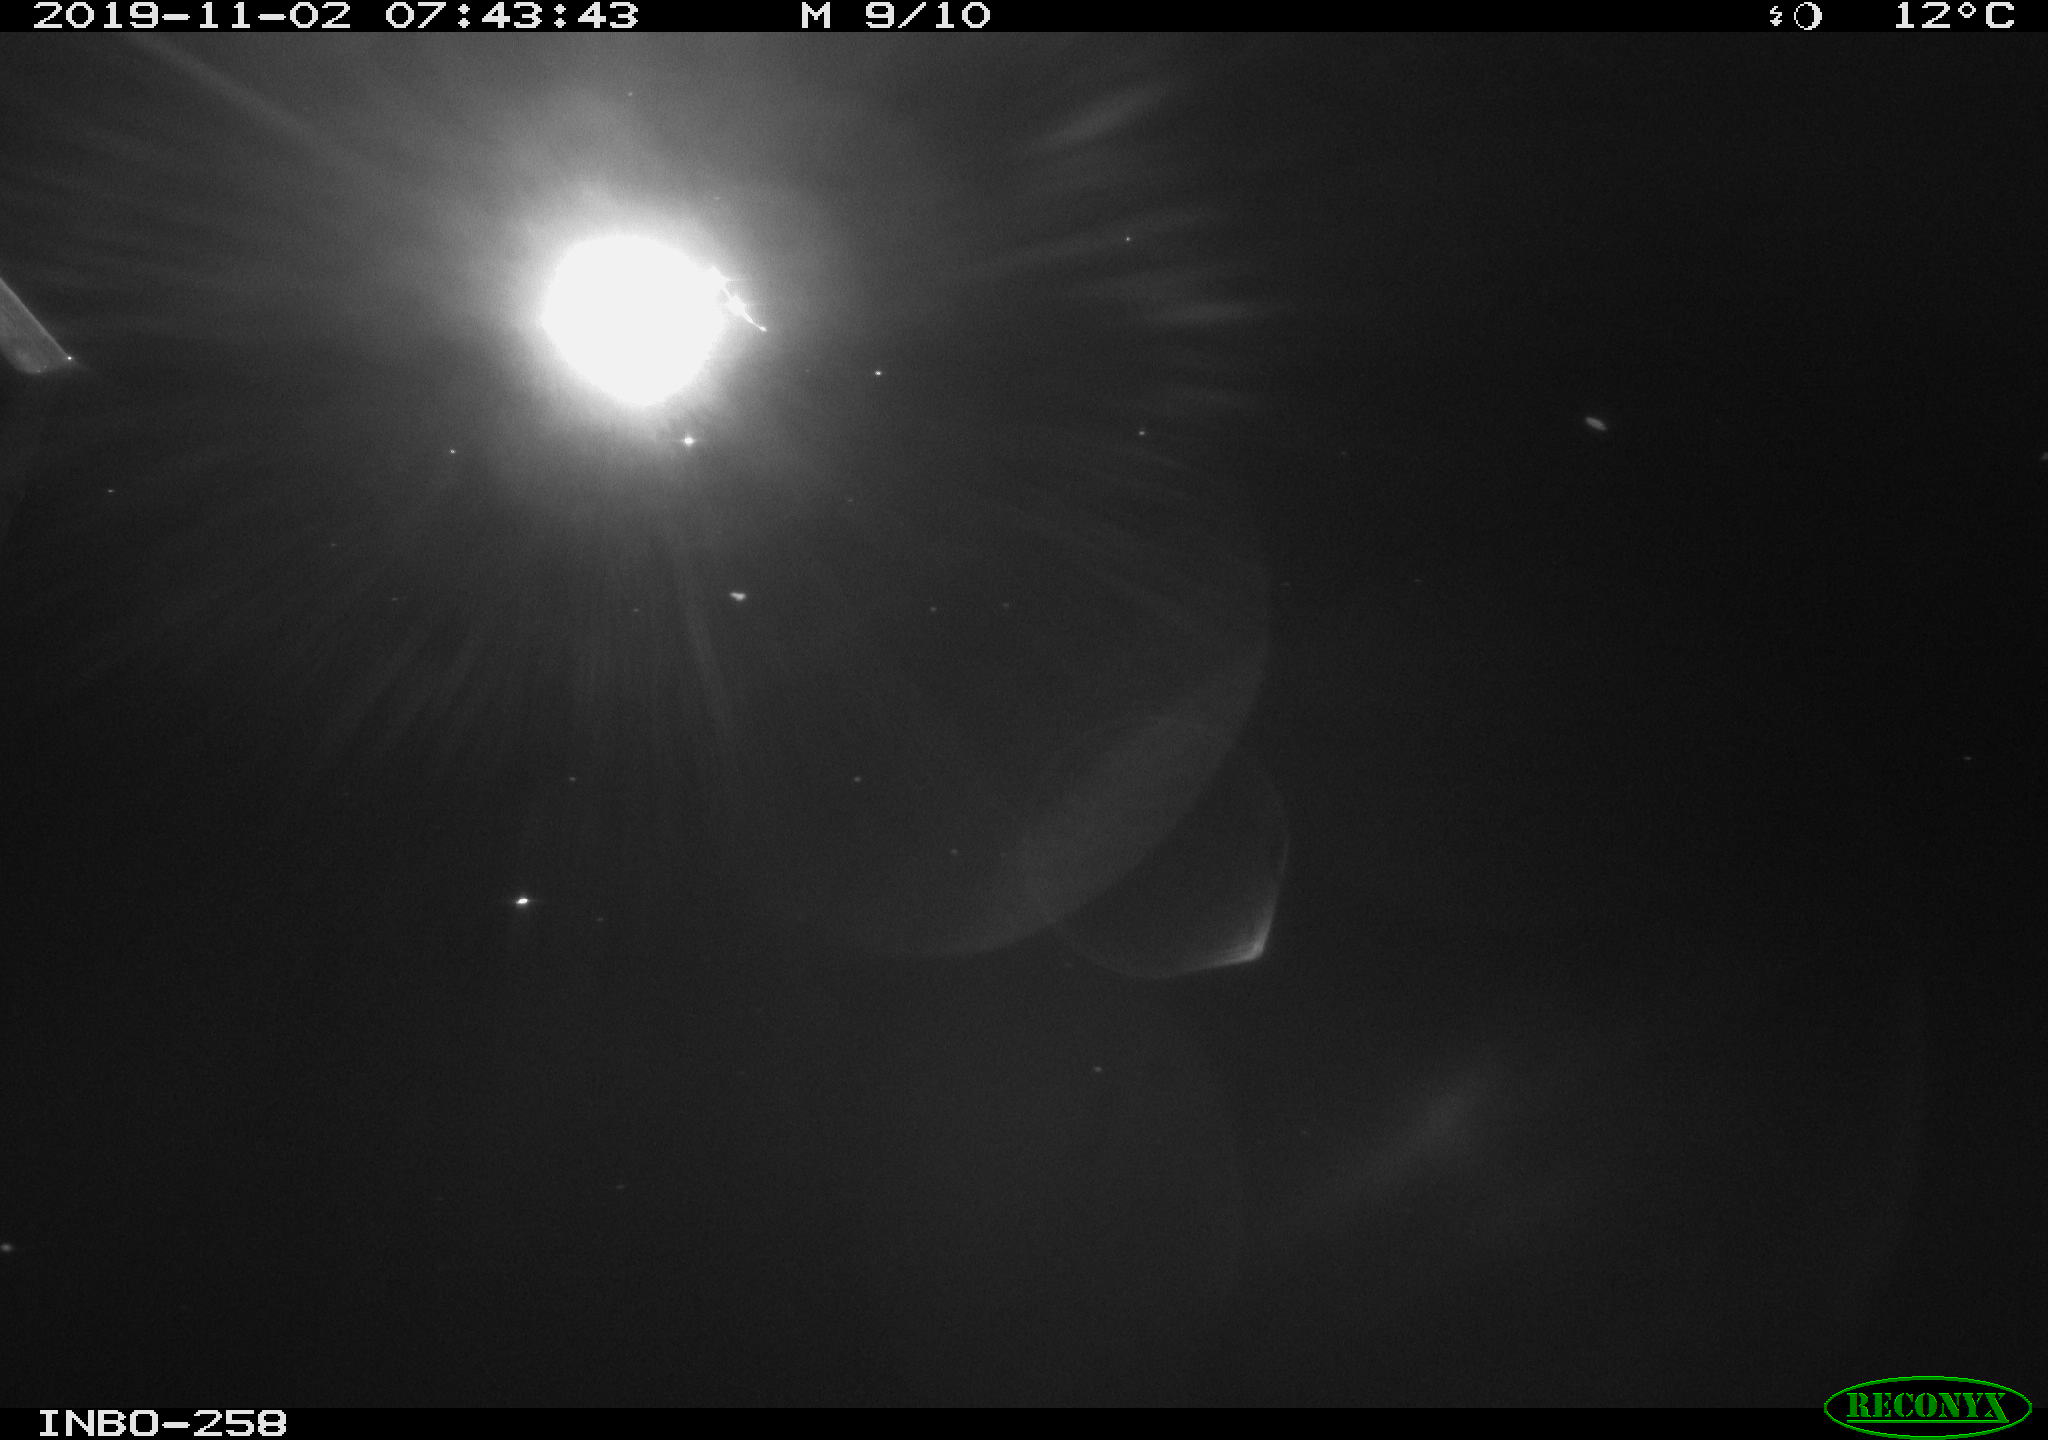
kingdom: Animalia
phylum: Chordata
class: Aves
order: Anseriformes
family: Anatidae
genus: Anas
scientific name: Anas platyrhynchos
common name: Mallard
